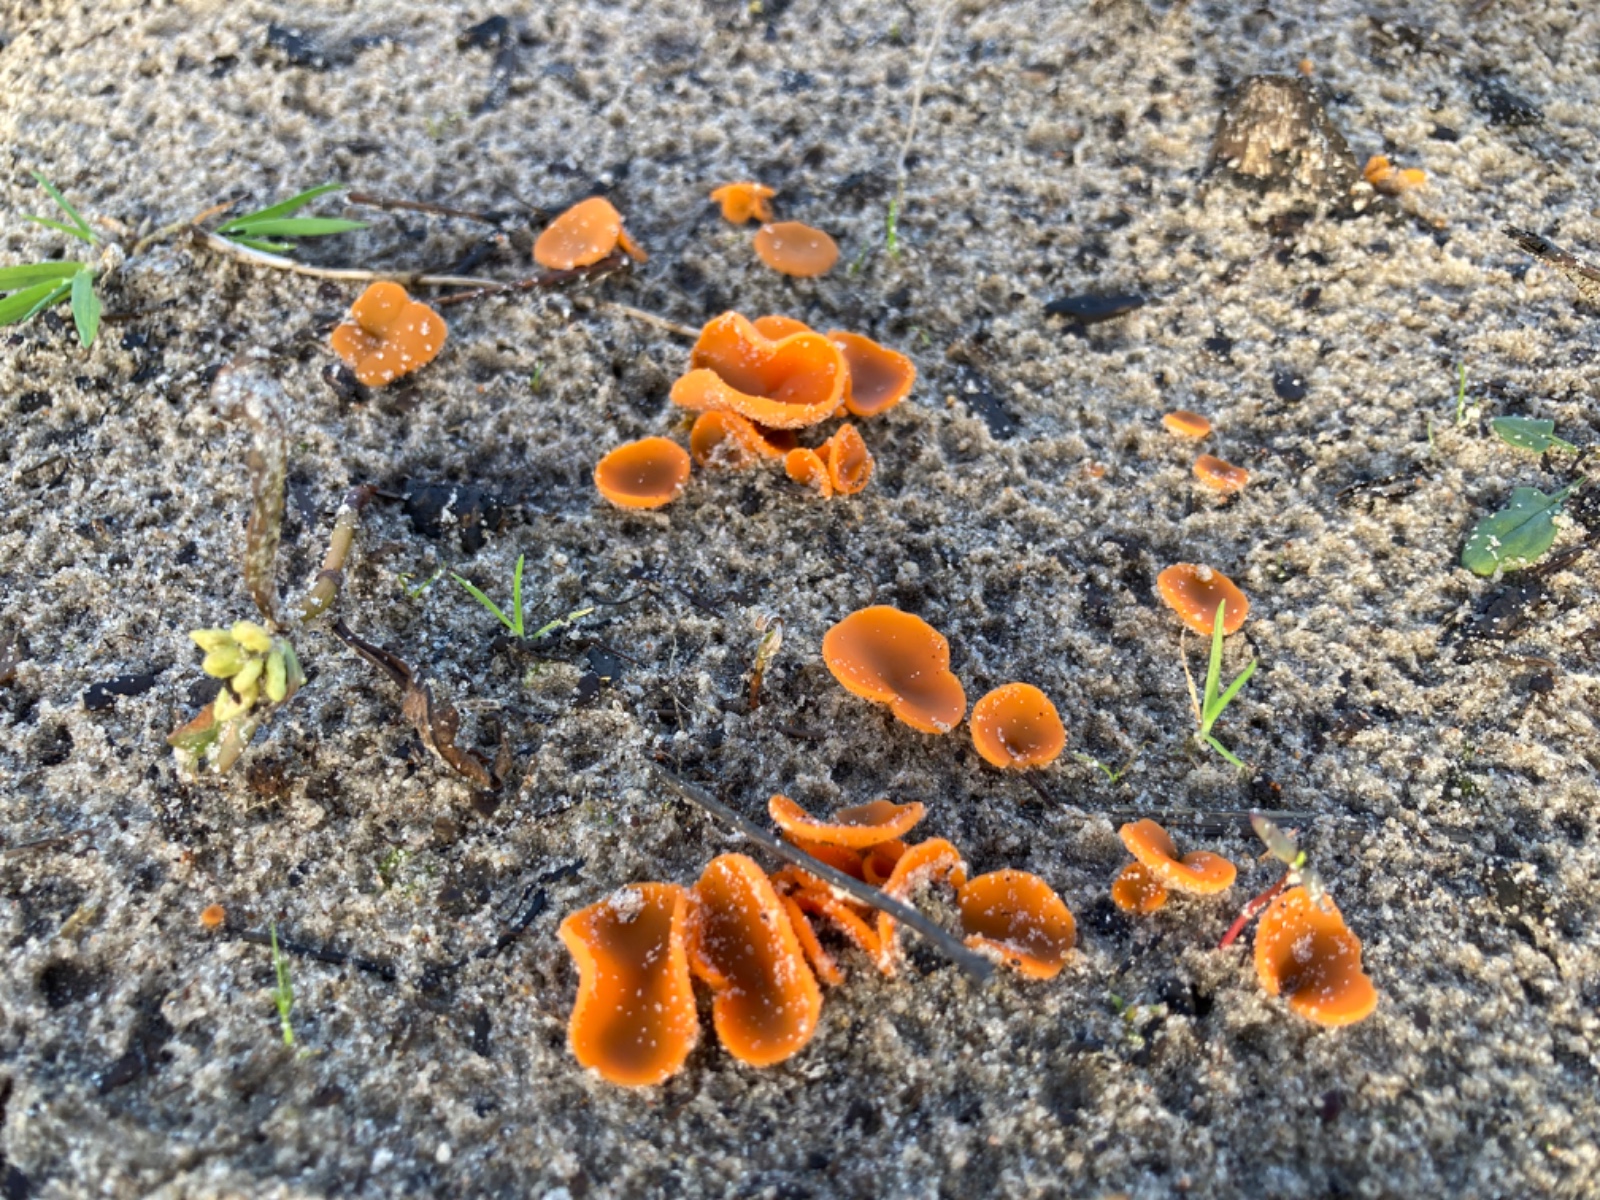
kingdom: Fungi
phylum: Ascomycota
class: Pezizomycetes
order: Pezizales
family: Pyronemataceae
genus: Neottiella
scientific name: Neottiella
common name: mosbæger
